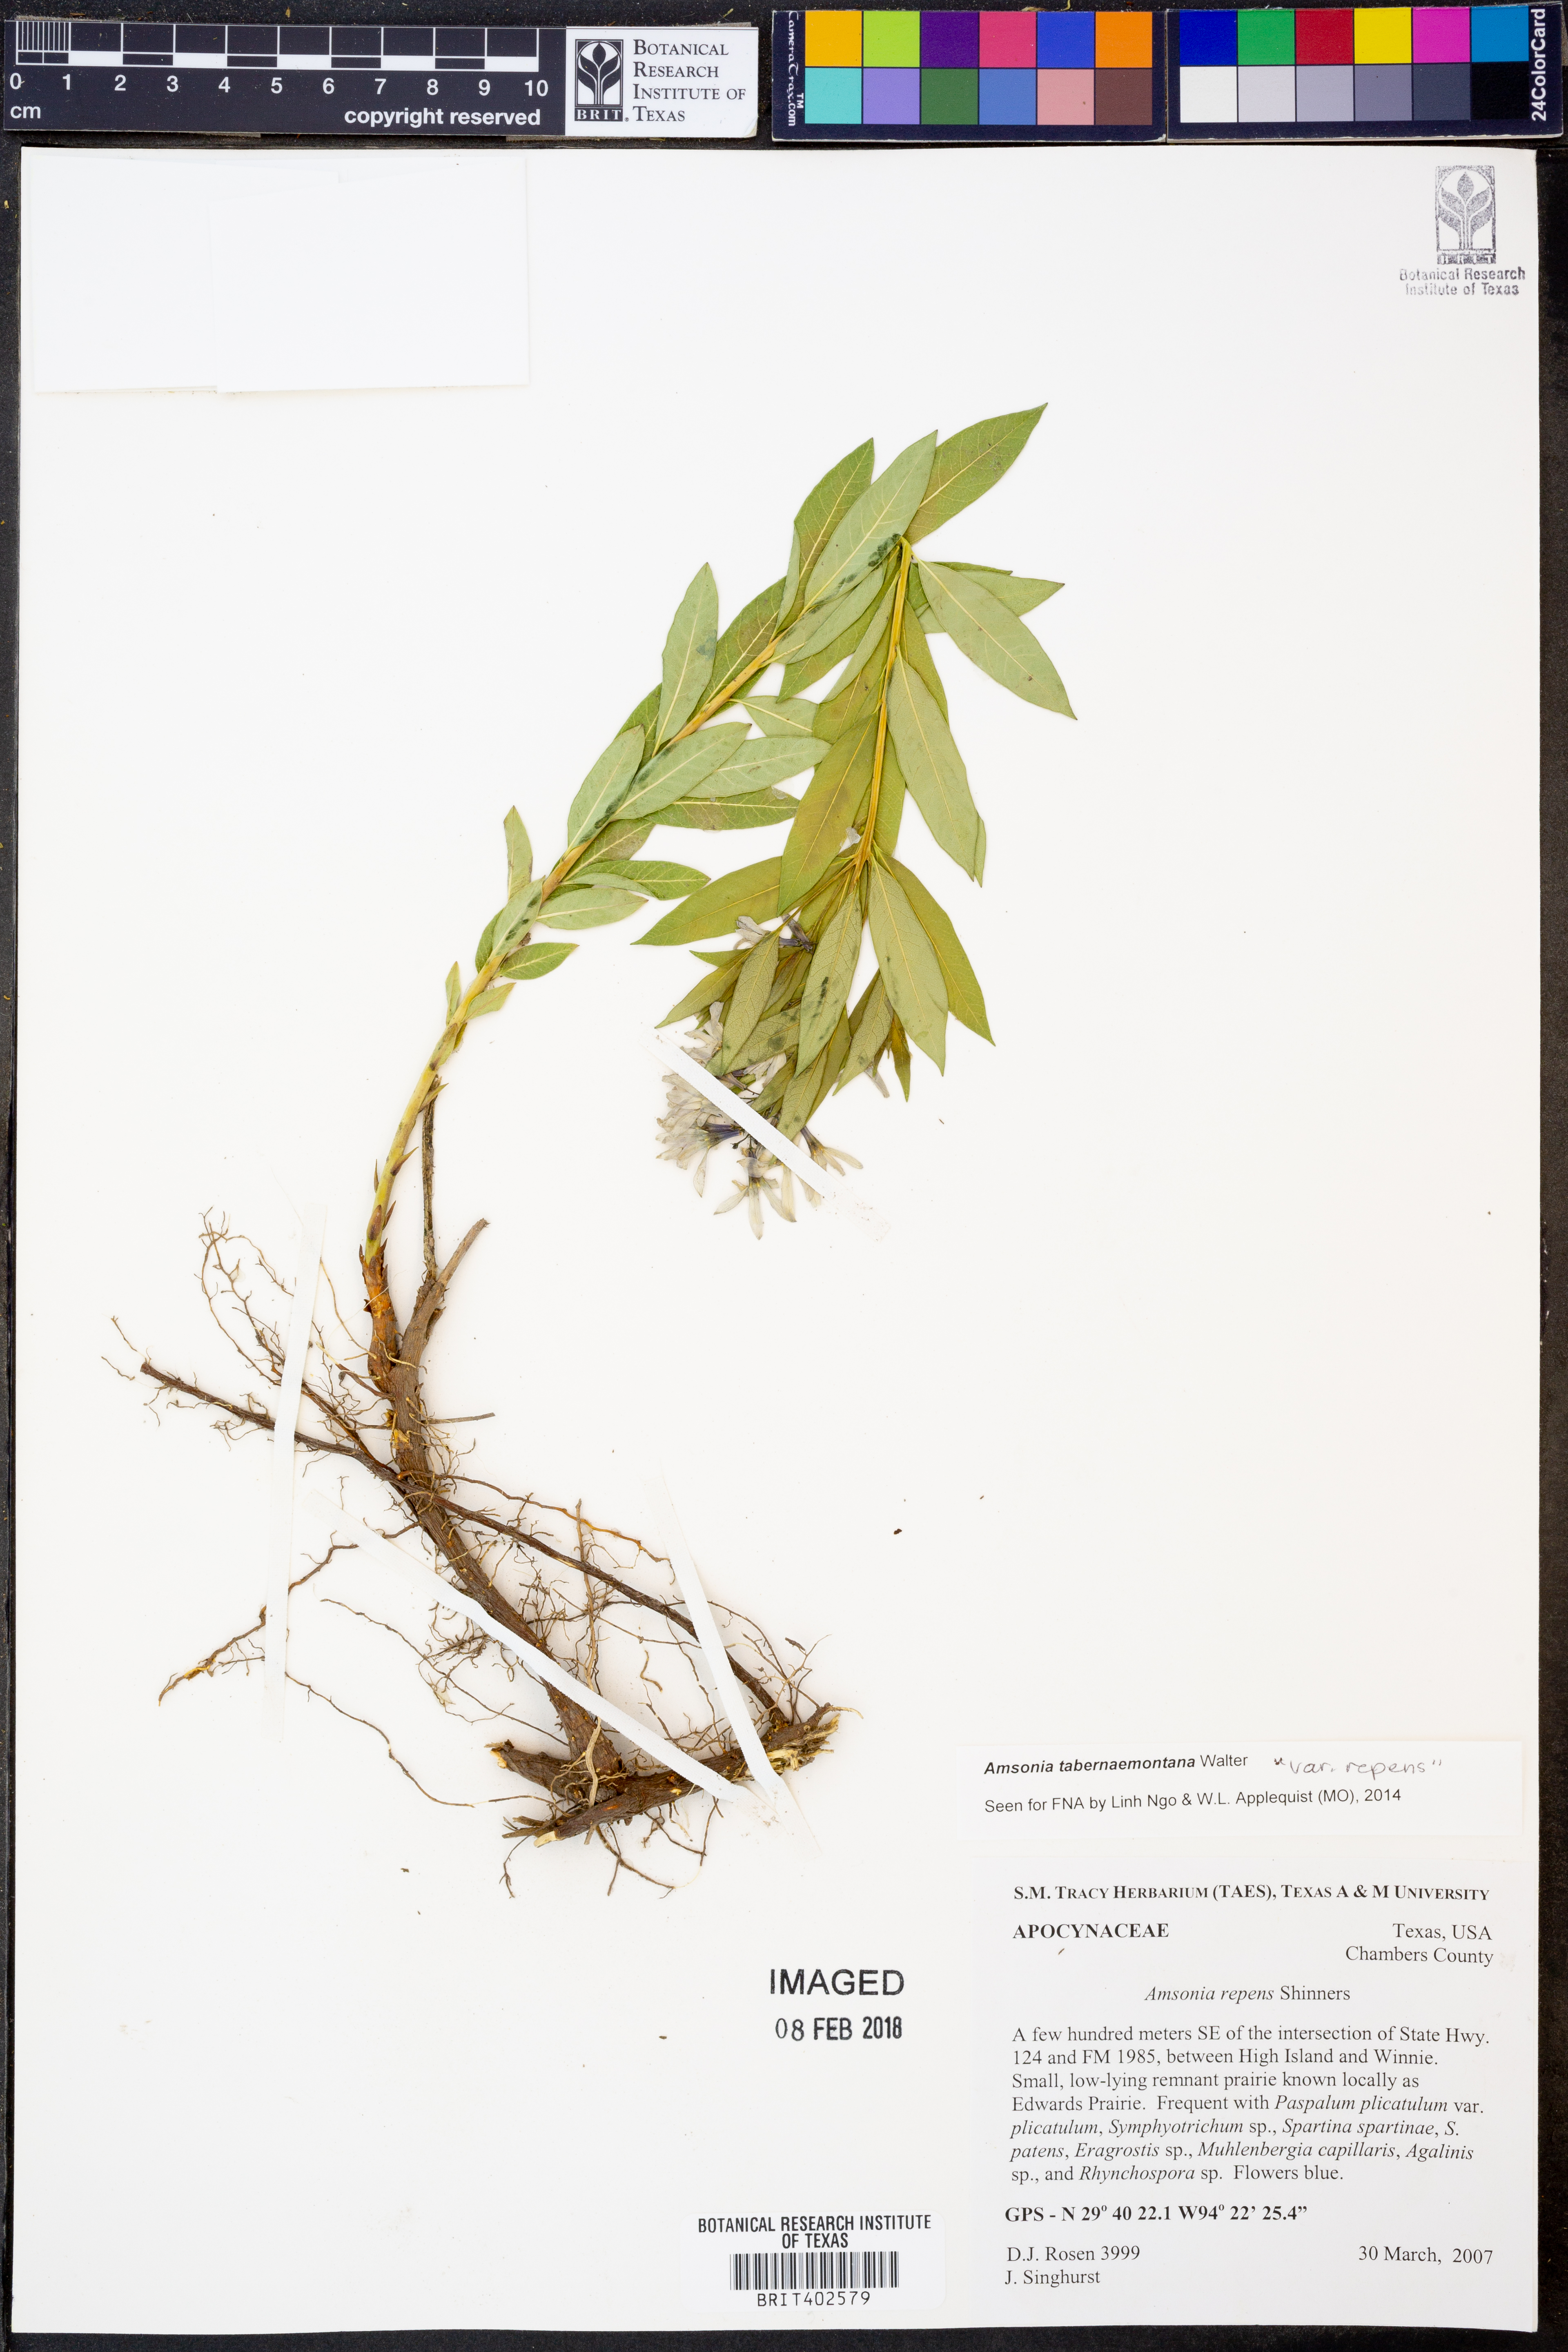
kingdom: Plantae
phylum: Tracheophyta
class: Magnoliopsida
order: Gentianales
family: Apocynaceae
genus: Amsonia
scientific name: Amsonia tabernaemontana
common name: Texas-star
